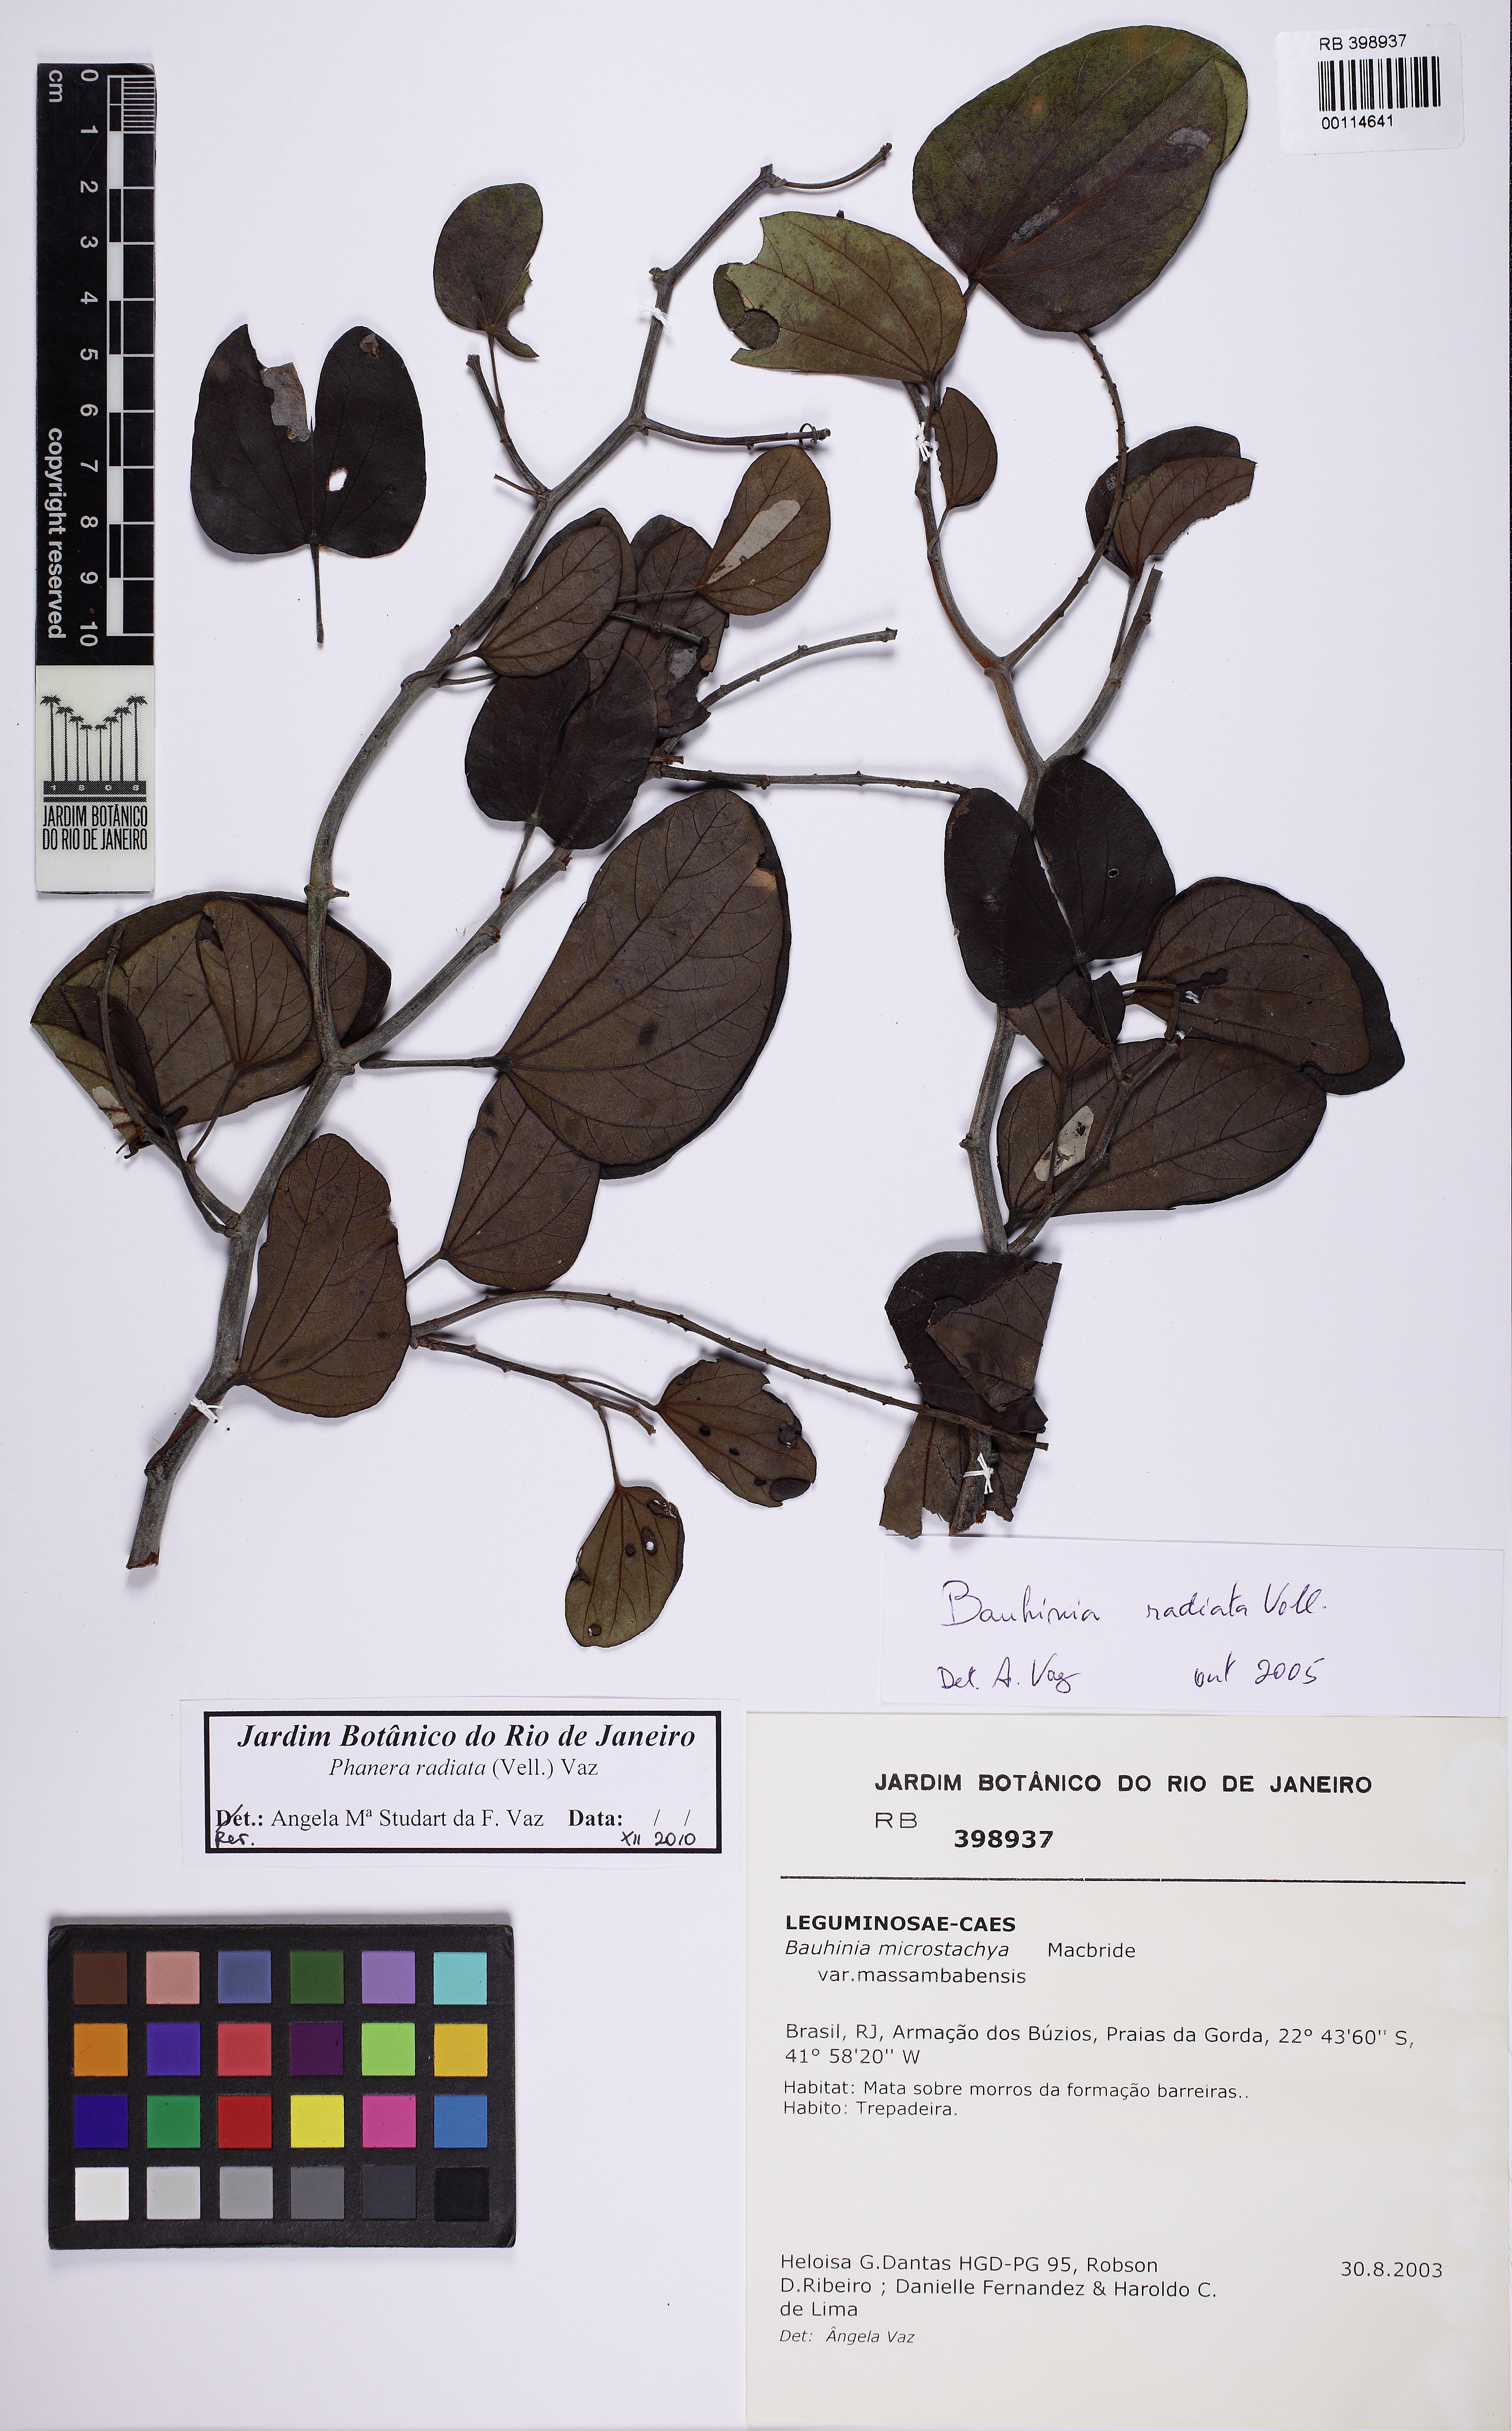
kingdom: Plantae
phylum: Tracheophyta
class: Magnoliopsida
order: Fabales
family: Fabaceae
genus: Schnella
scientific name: Schnella microstachya
